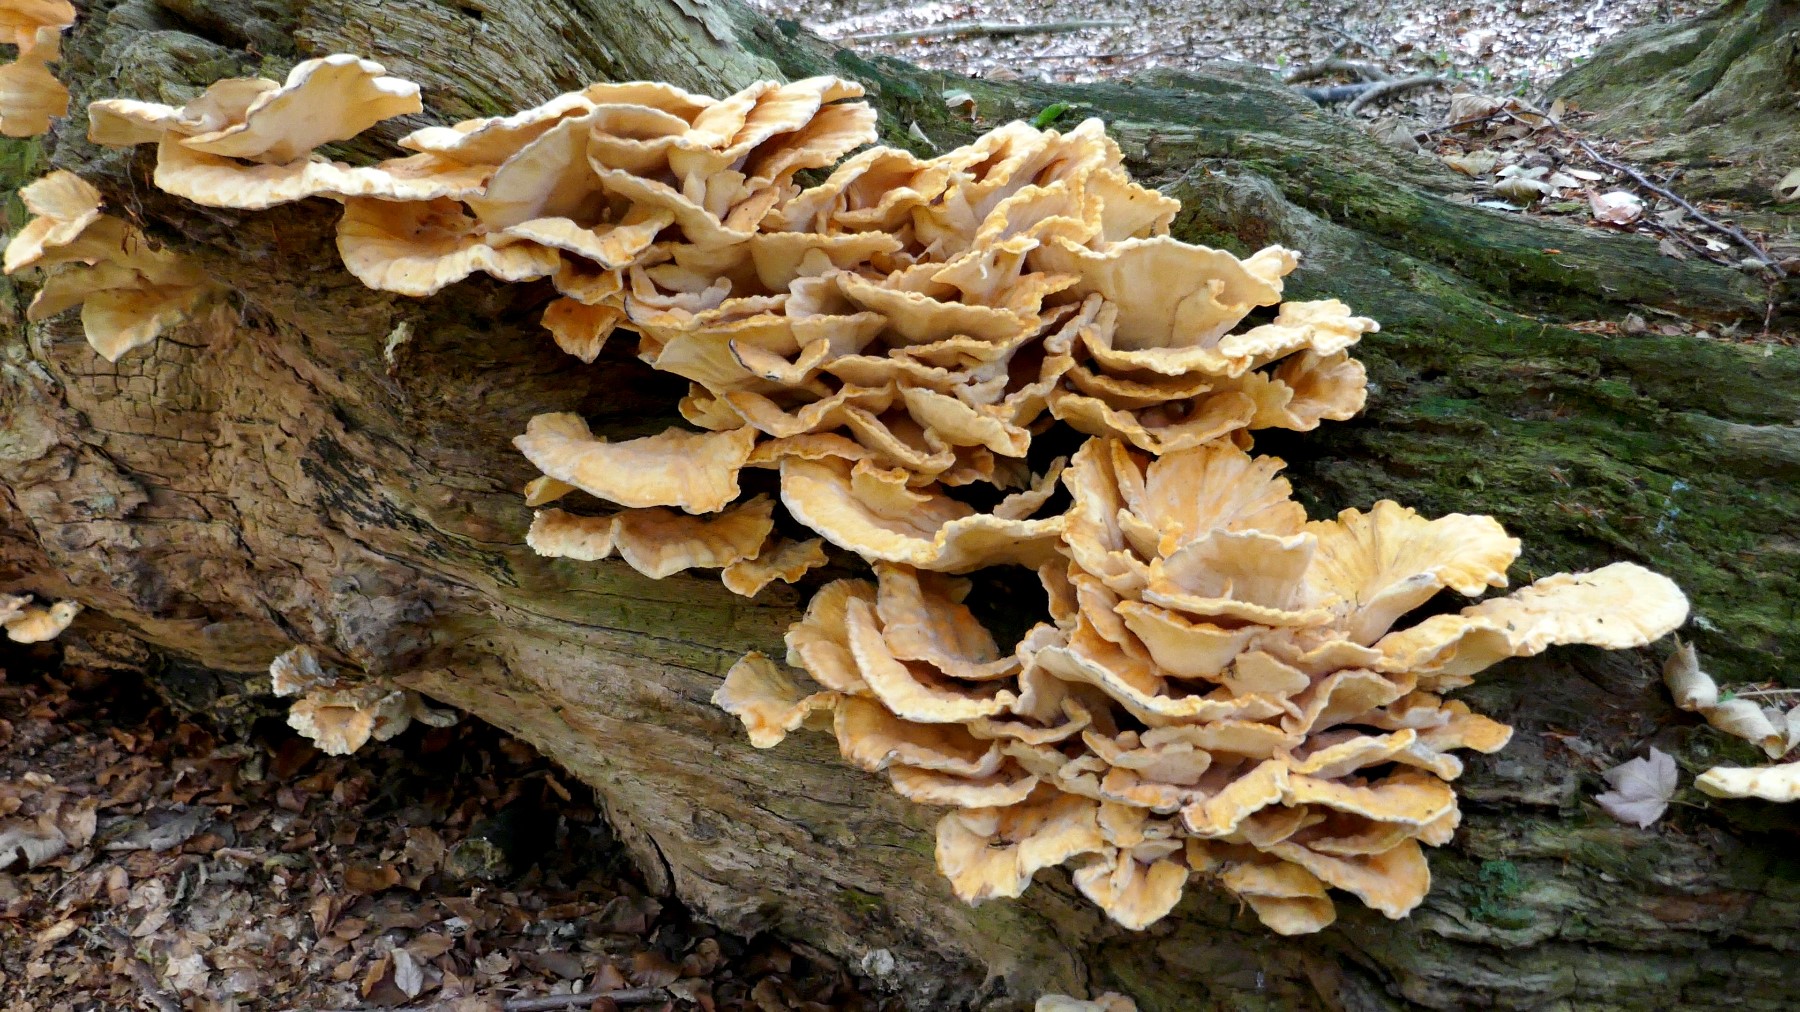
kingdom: Fungi
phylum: Basidiomycota
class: Agaricomycetes
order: Polyporales
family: Laetiporaceae
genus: Laetiporus
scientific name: Laetiporus sulphureus
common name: svovlporesvamp
